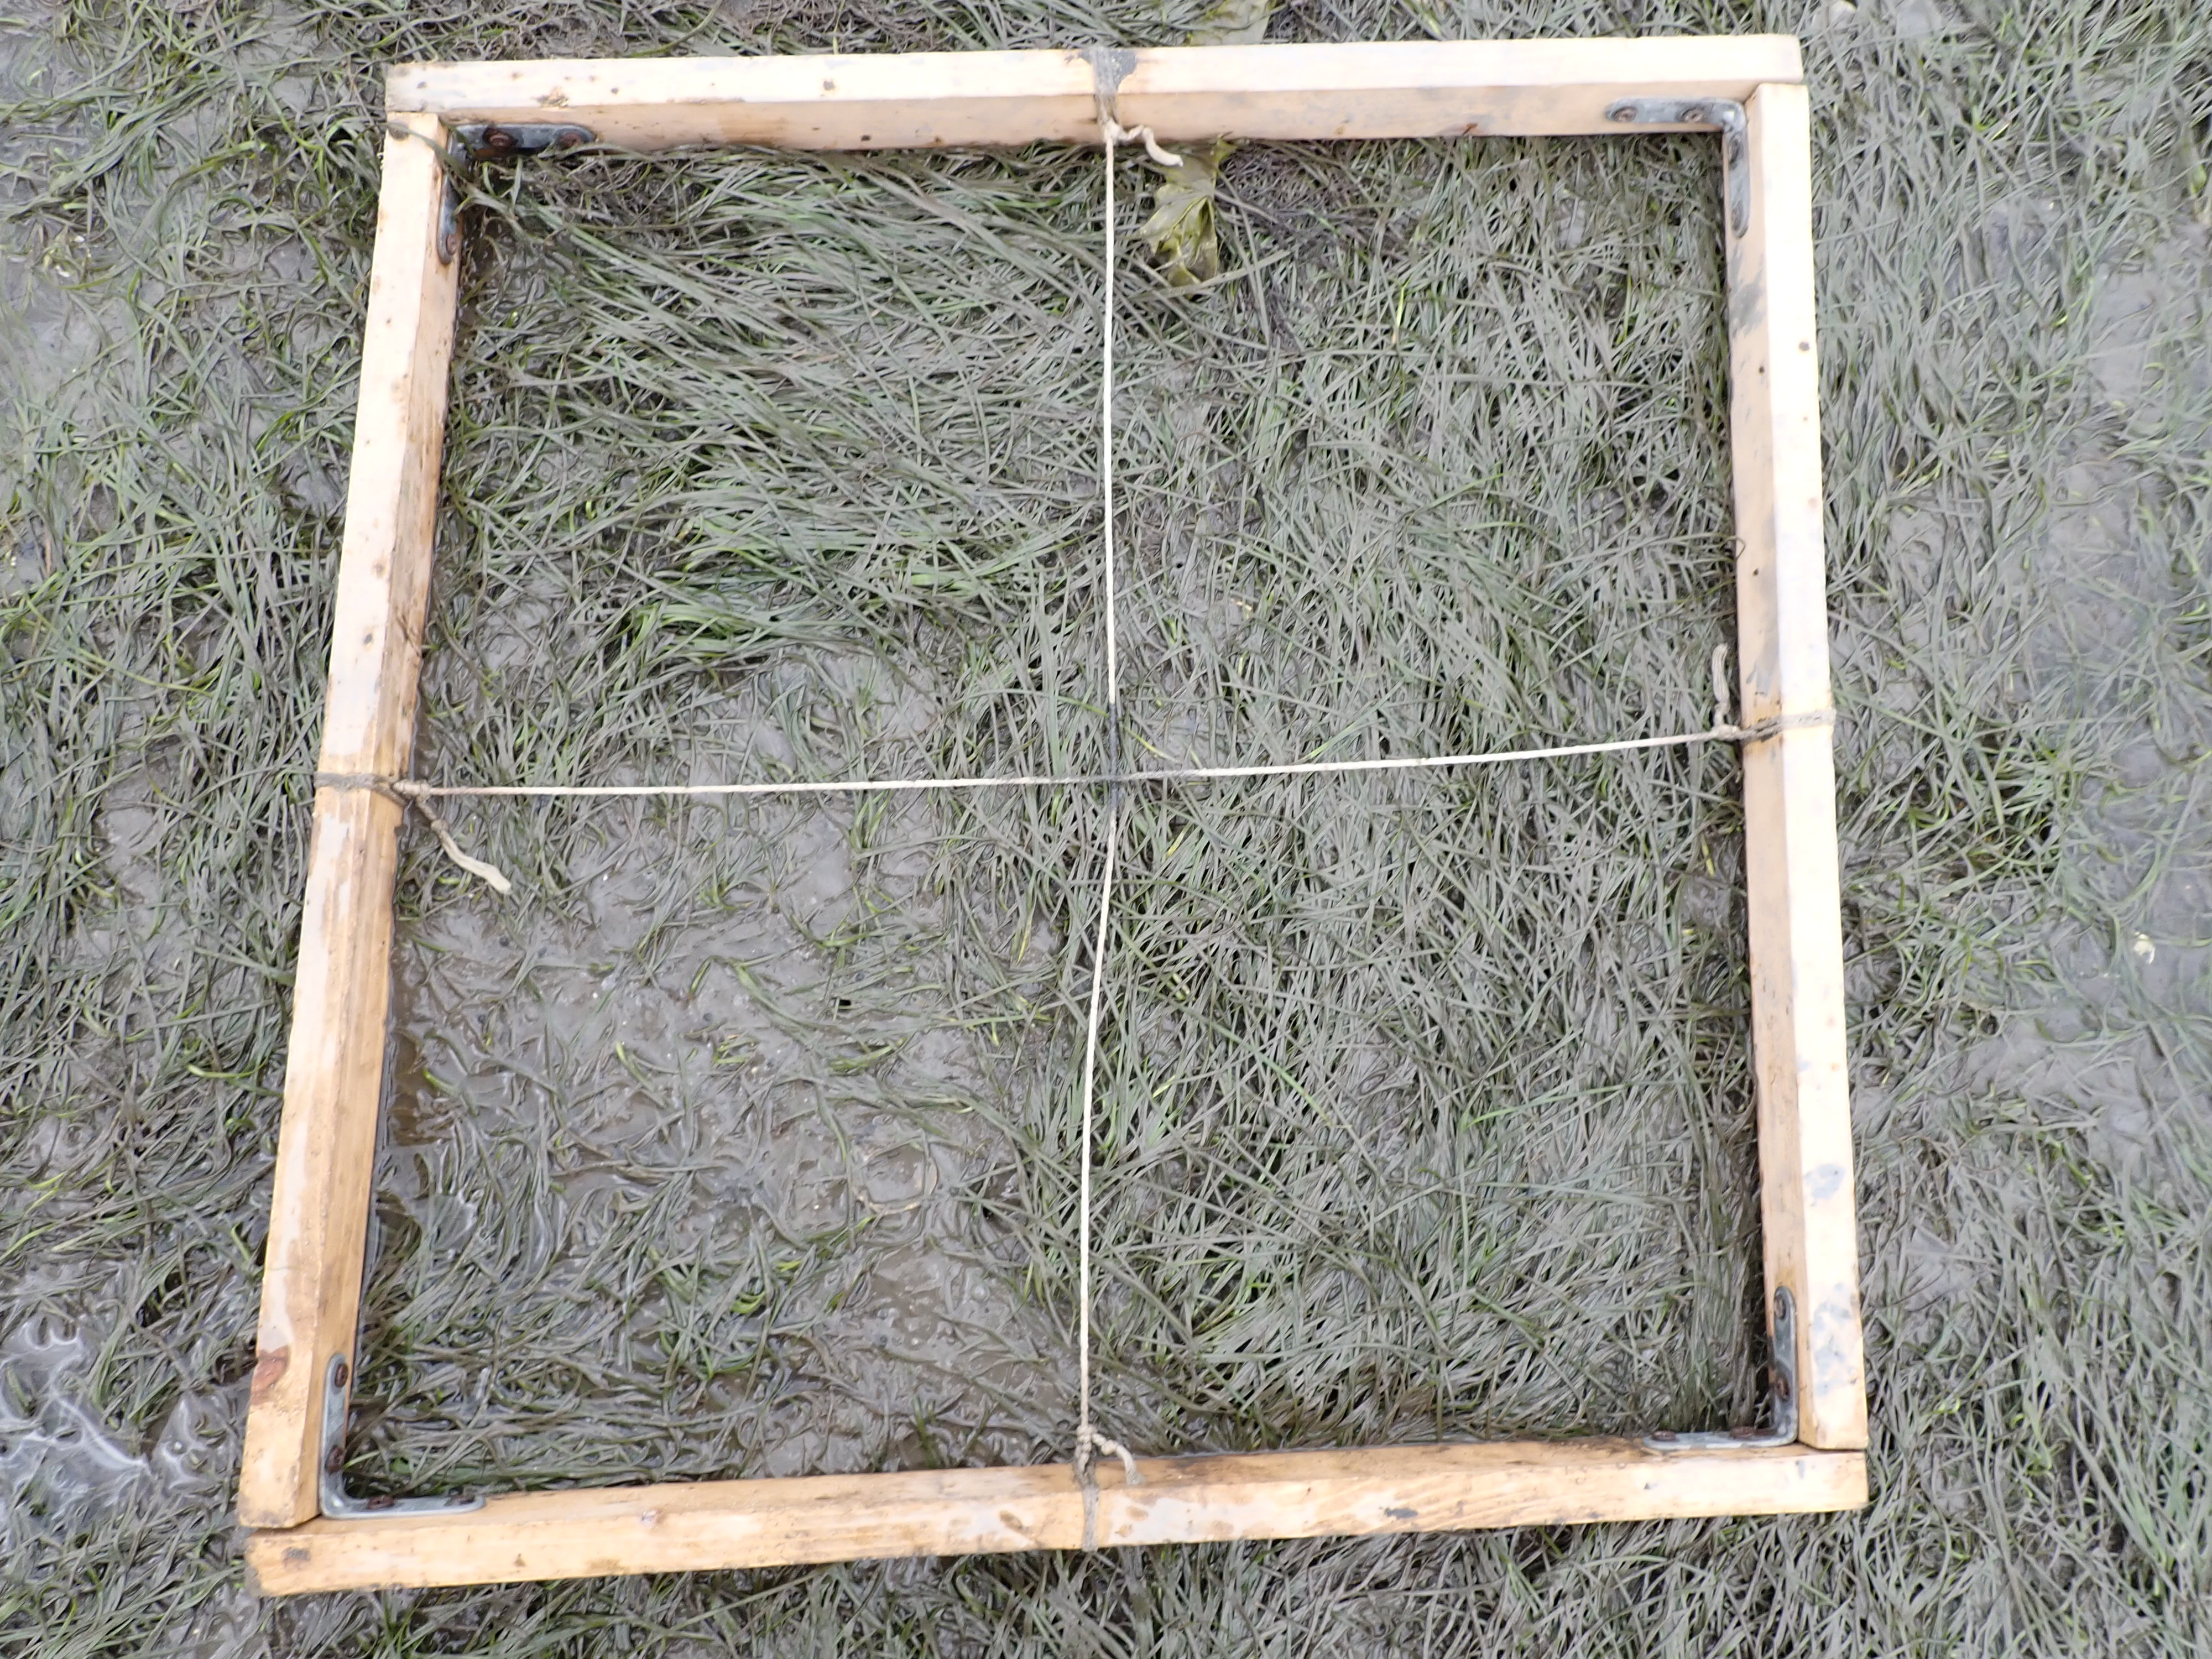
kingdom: Plantae
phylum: Tracheophyta
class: Liliopsida
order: Alismatales
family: Zosteraceae
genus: Zostera
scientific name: Zostera noltii
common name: Dwarf eelgrass
